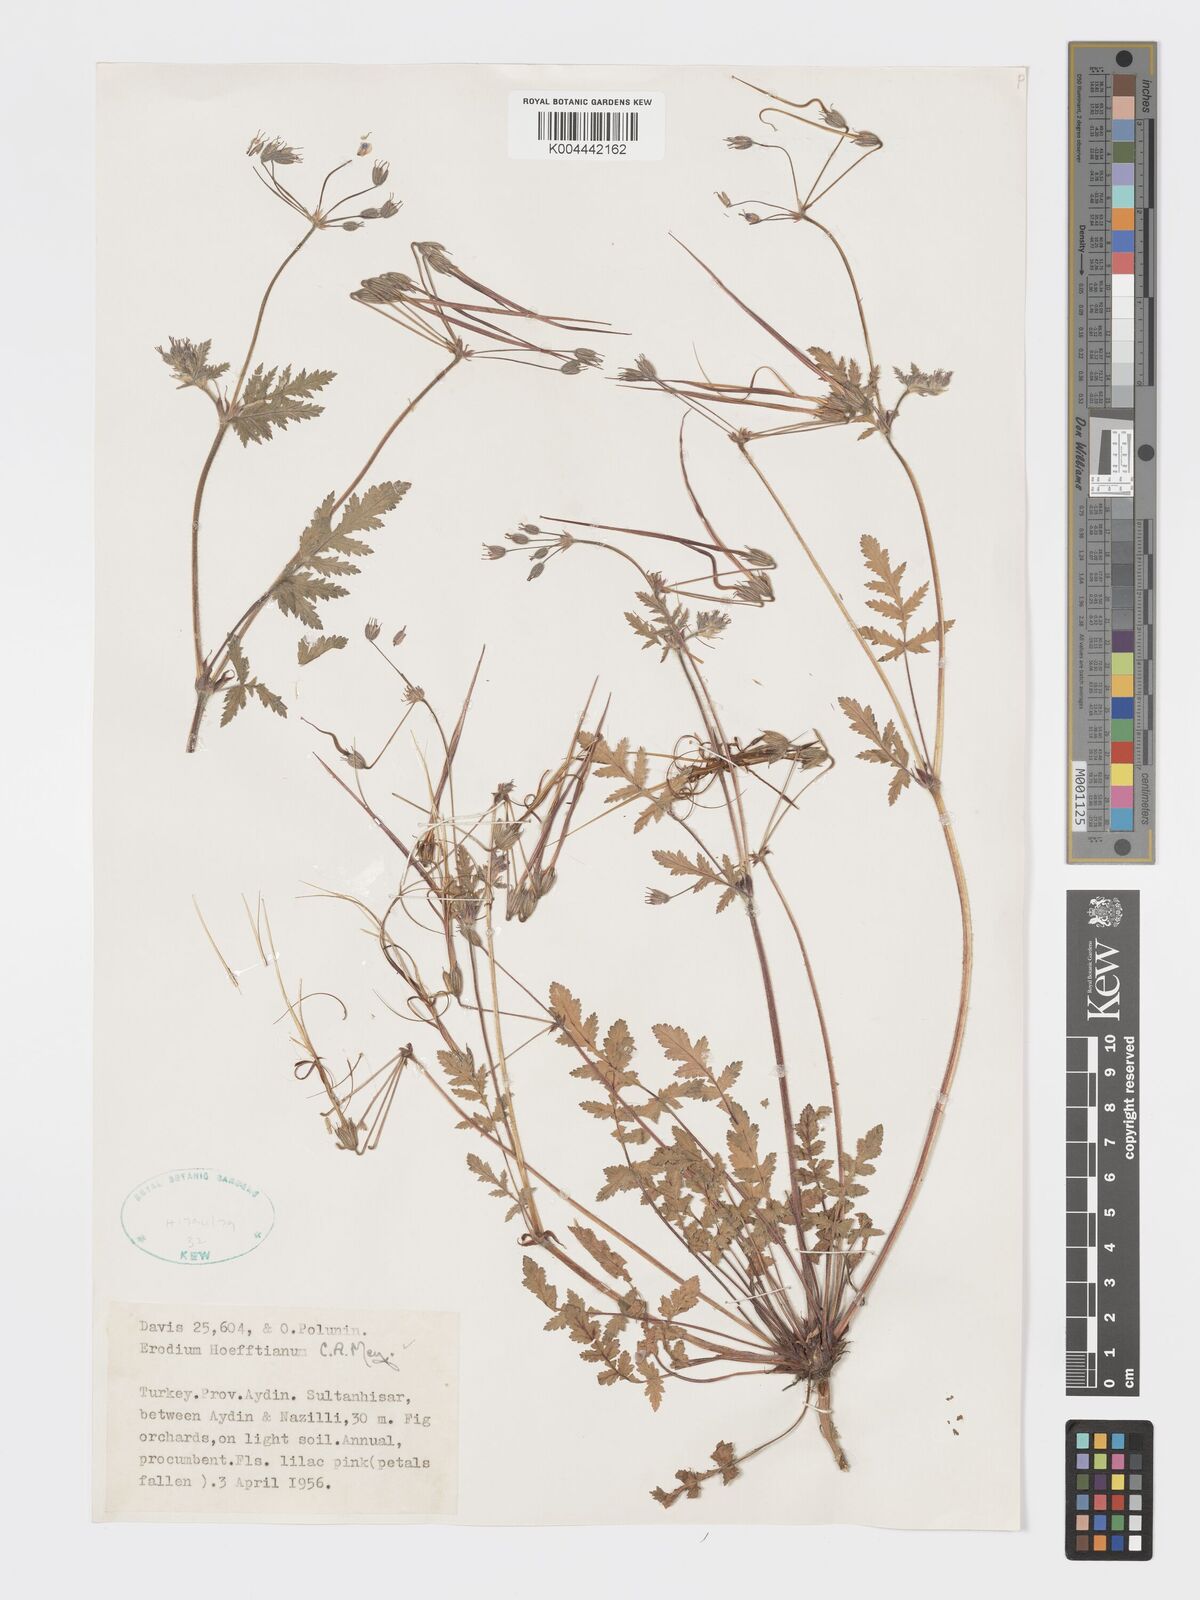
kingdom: Plantae
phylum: Tracheophyta
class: Magnoliopsida
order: Geraniales
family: Geraniaceae
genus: Erodium
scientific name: Erodium hoefftianum
